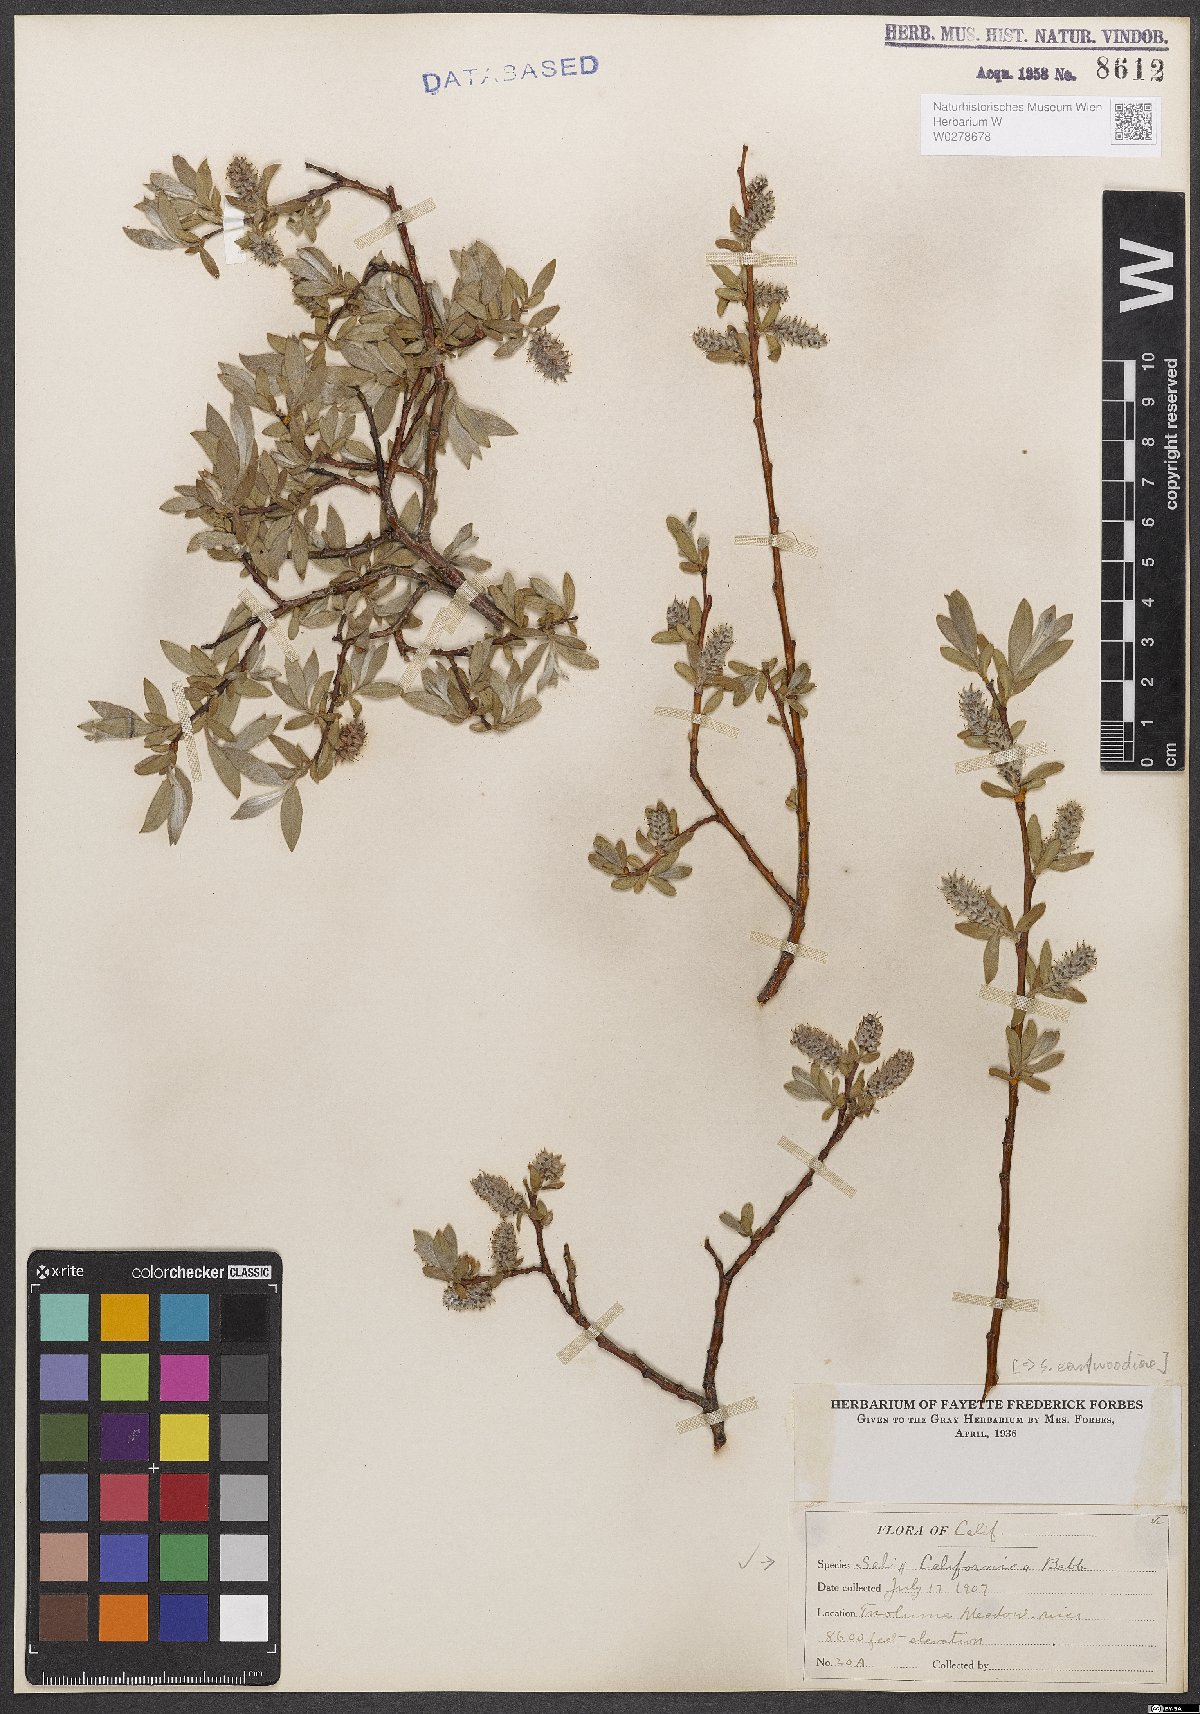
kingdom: Plantae
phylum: Tracheophyta
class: Magnoliopsida
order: Malpighiales
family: Salicaceae
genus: Salix
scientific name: Salix eastwoodiae
